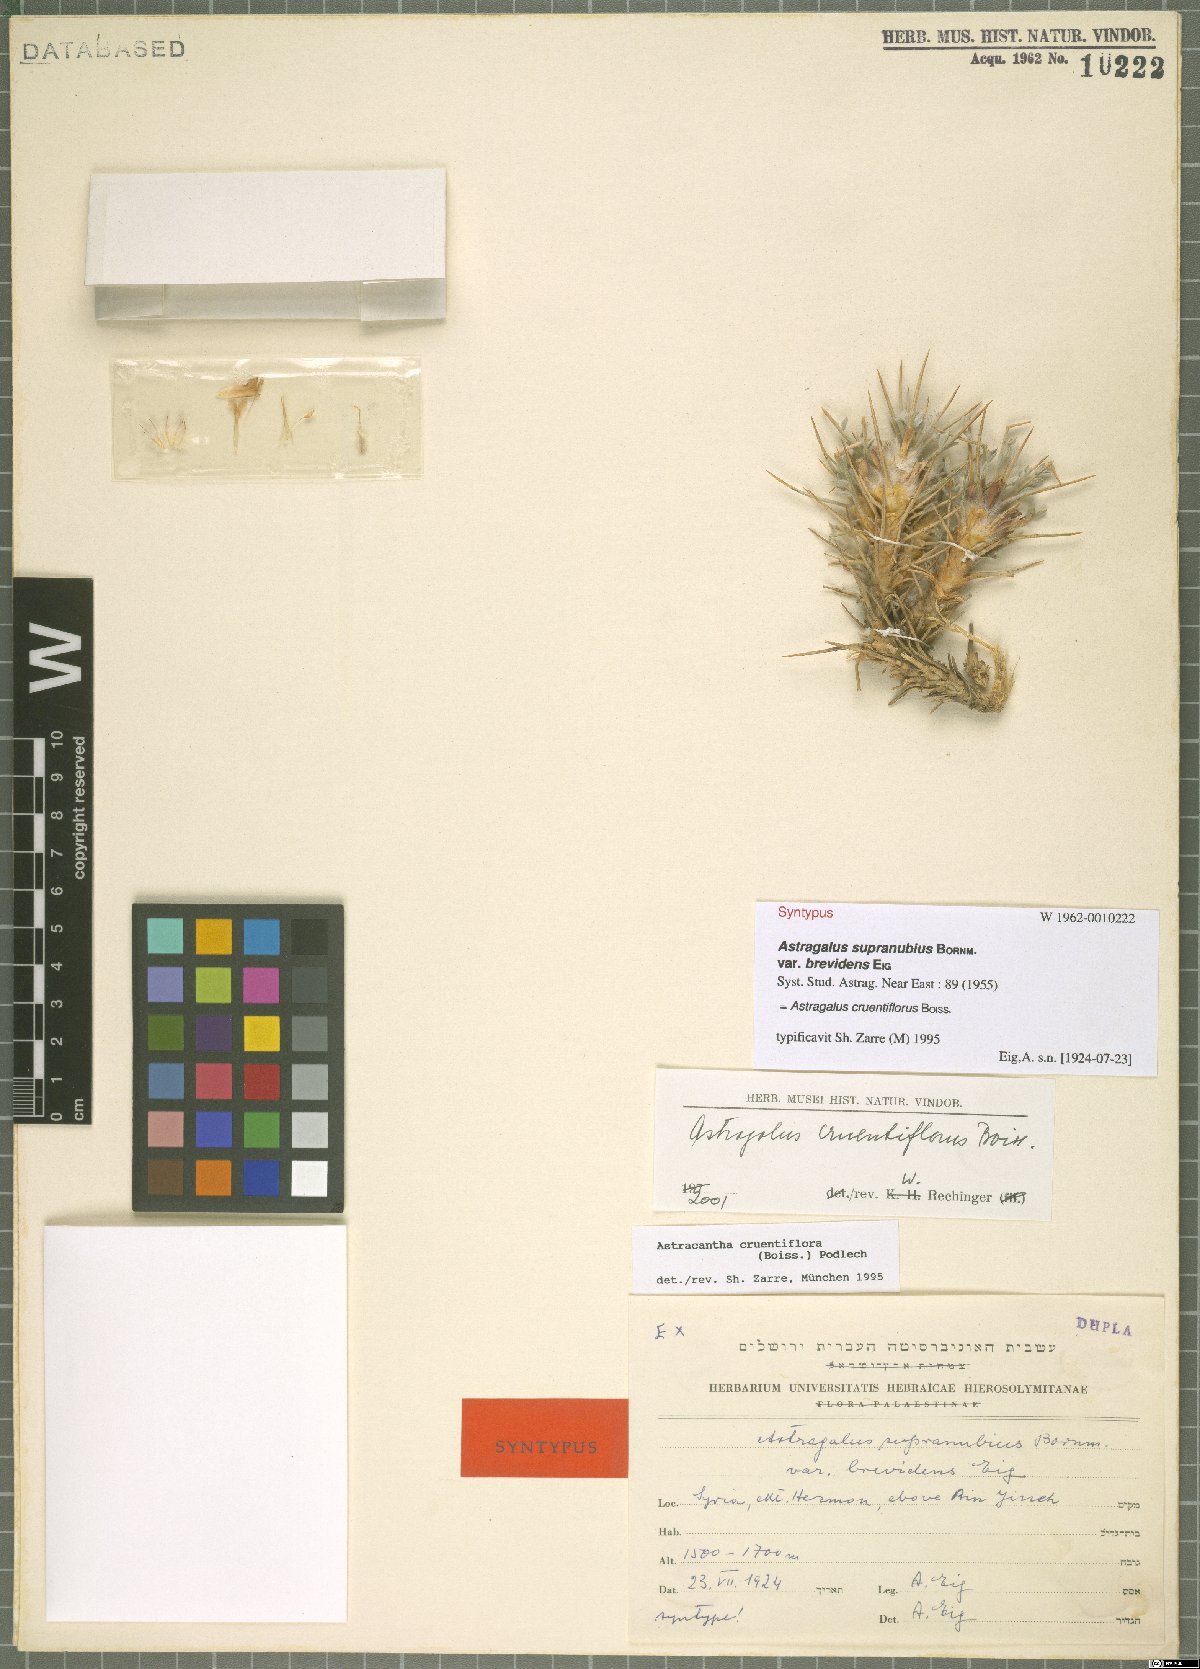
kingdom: Plantae
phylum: Tracheophyta
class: Magnoliopsida
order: Fabales
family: Fabaceae
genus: Astragalus
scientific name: Astragalus cruentiflorus
